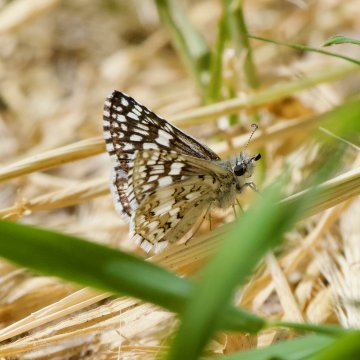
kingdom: Animalia
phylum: Arthropoda
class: Insecta
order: Lepidoptera
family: Hesperiidae
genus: Pyrgus
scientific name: Pyrgus
